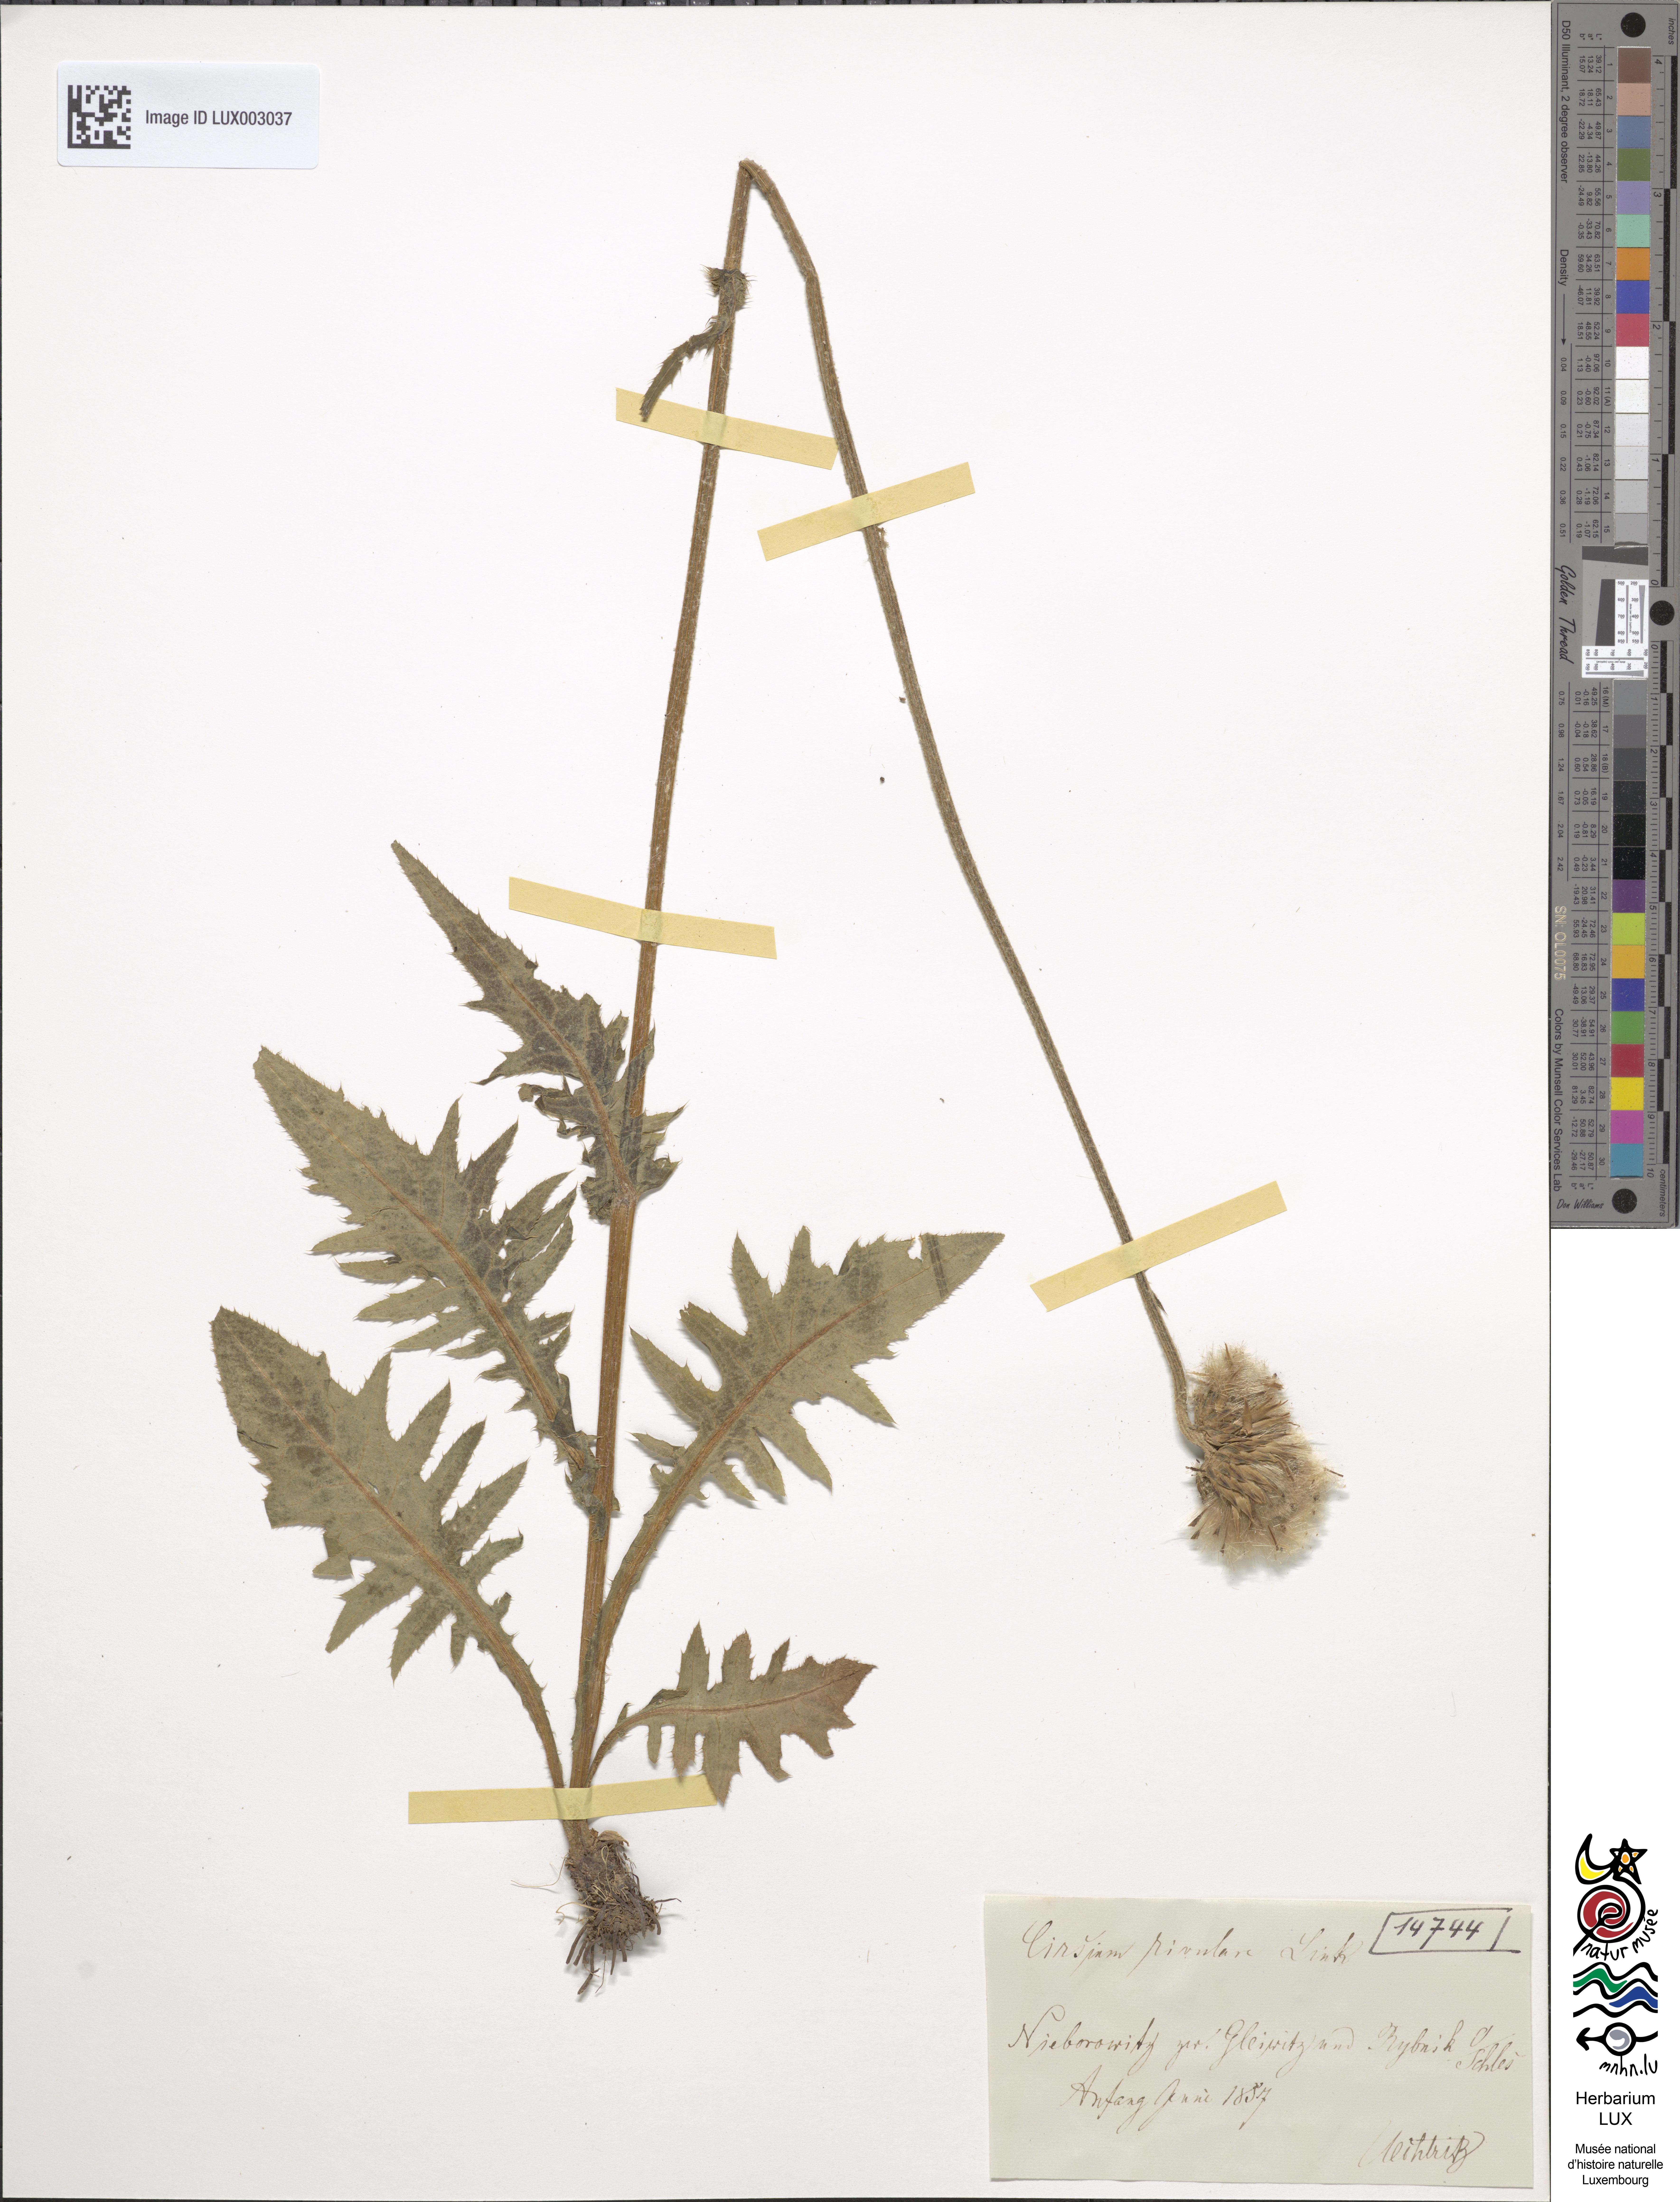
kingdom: Plantae
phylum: Tracheophyta
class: Magnoliopsida
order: Asterales
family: Asteraceae
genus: Cirsium
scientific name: Cirsium rivulare
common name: Brook thistle
